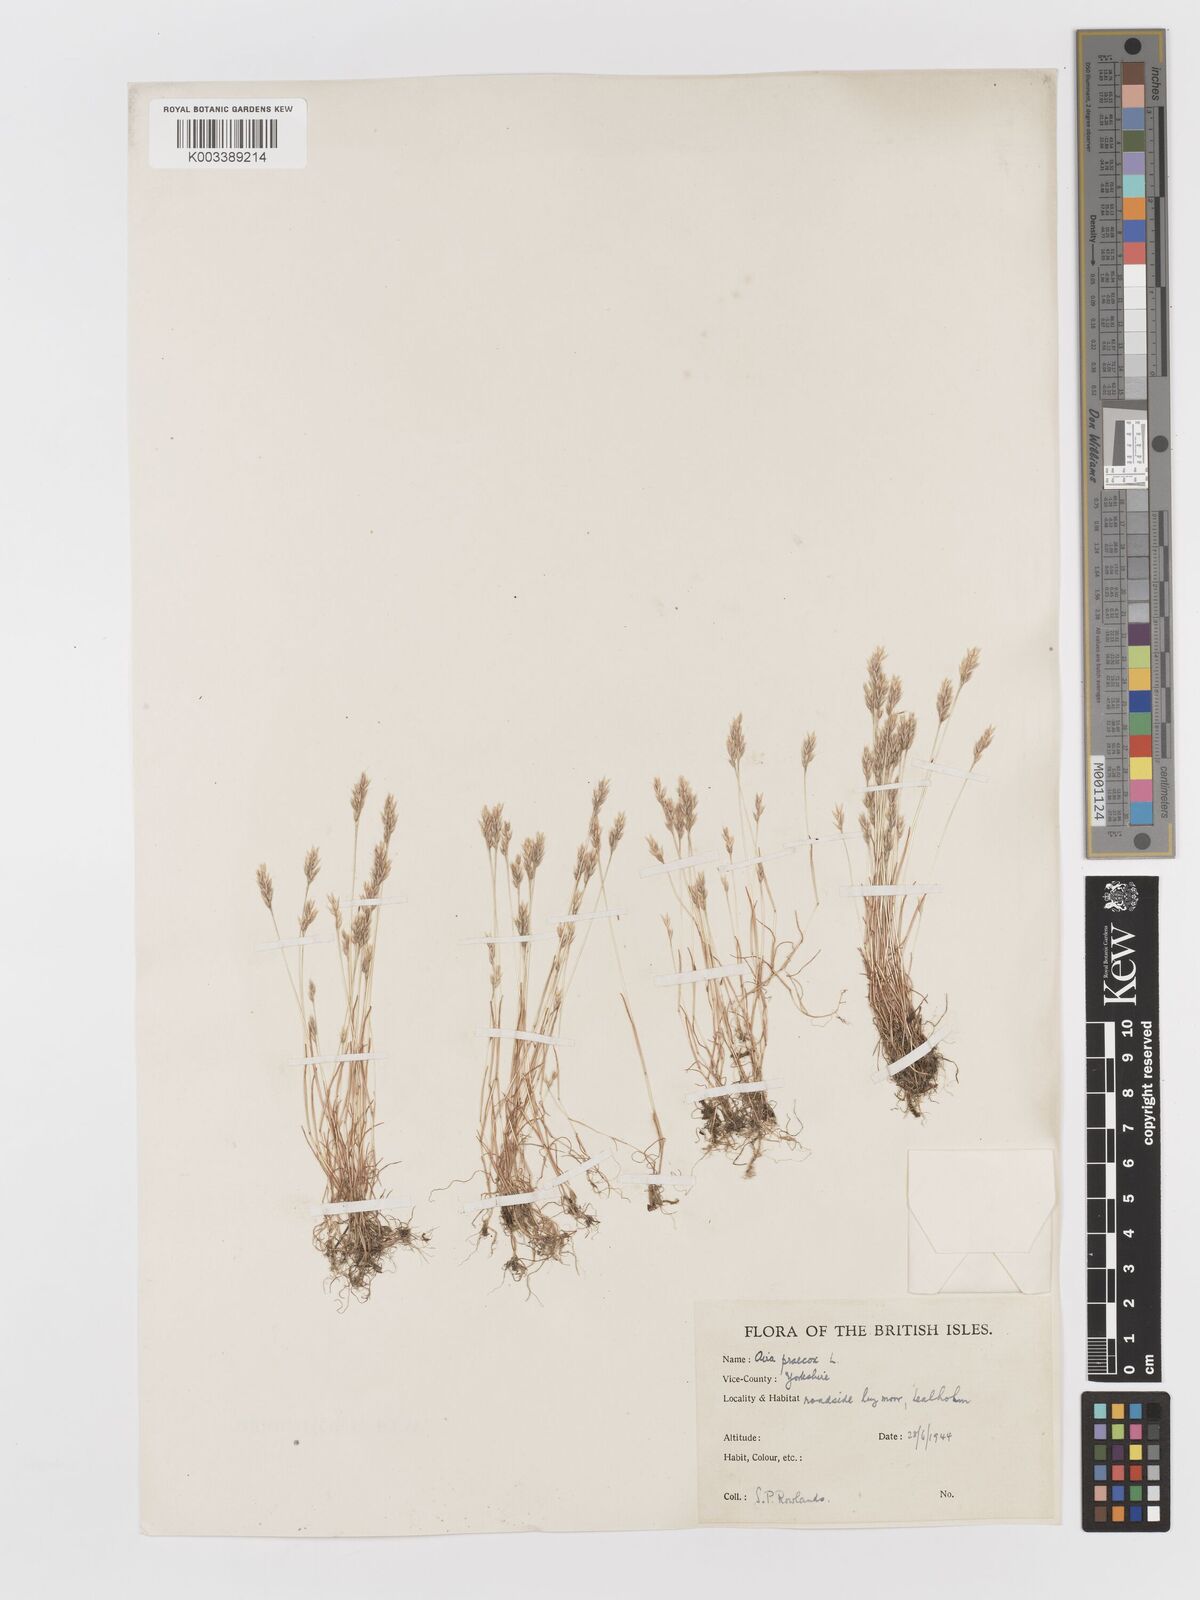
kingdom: Plantae
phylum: Tracheophyta
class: Liliopsida
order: Poales
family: Poaceae
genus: Aira
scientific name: Aira praecox
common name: Early hair-grass
